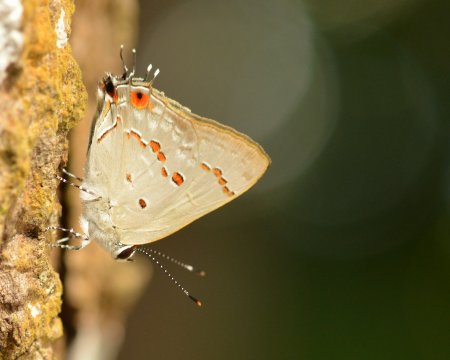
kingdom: Animalia
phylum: Arthropoda
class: Insecta
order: Lepidoptera
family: Lycaenidae
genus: Thecla
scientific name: Thecla ziba
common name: Ziba Scrub-Hairstreak
